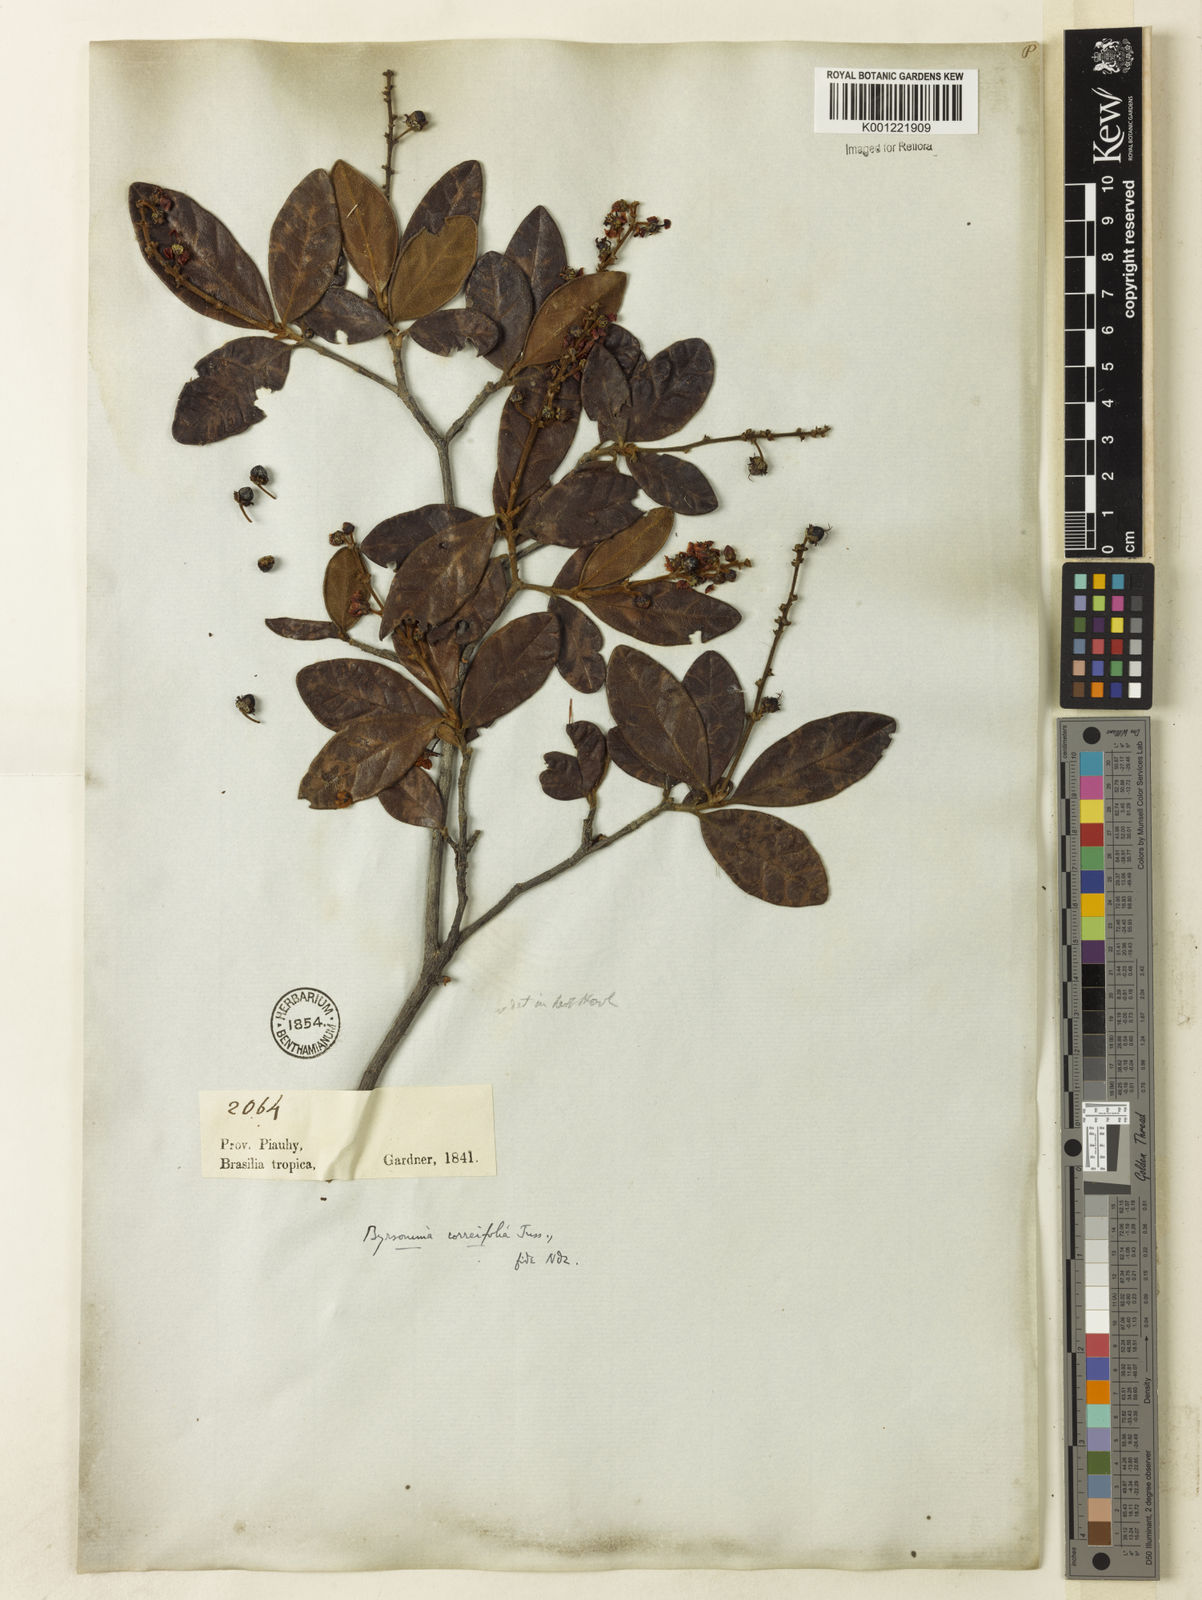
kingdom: Plantae
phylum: Tracheophyta
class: Magnoliopsida
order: Malpighiales
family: Malpighiaceae
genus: Byrsonima
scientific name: Byrsonima correifolia
